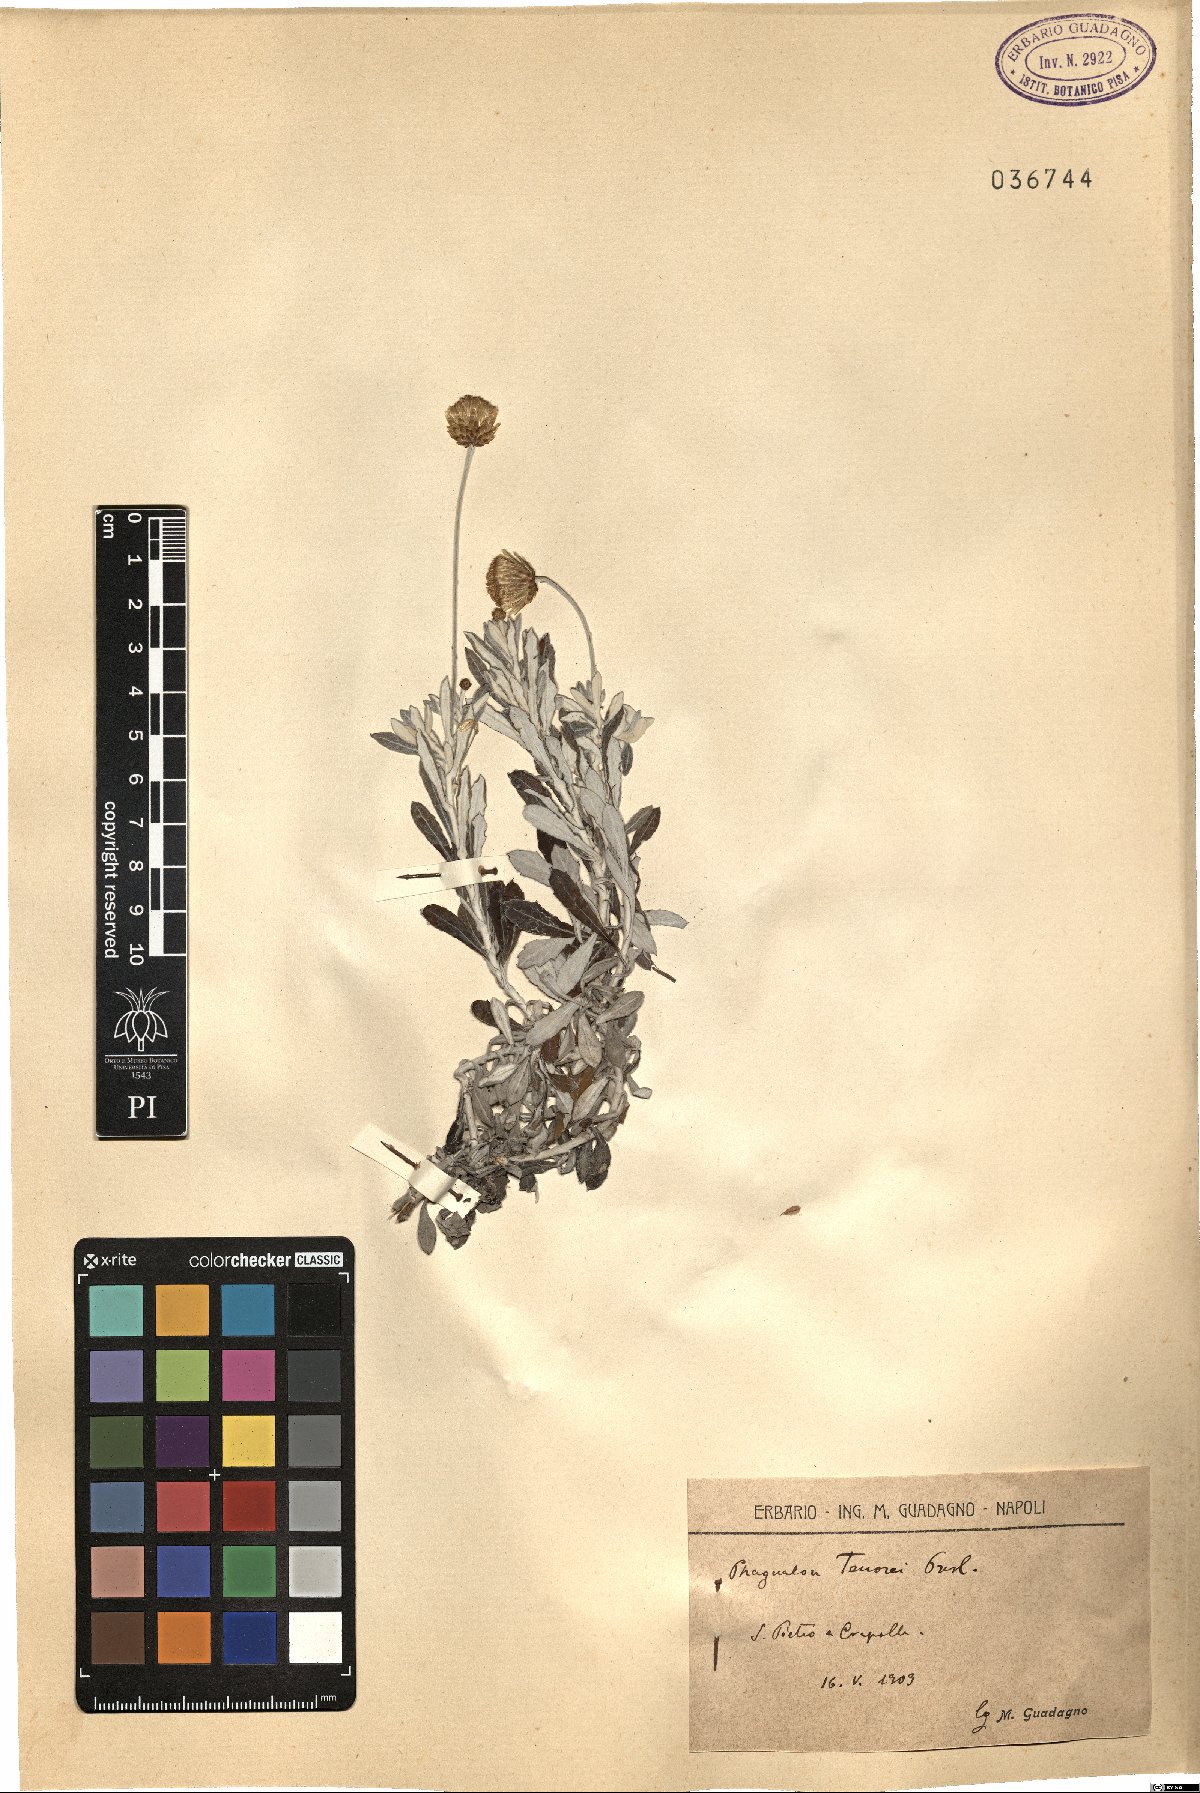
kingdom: Plantae
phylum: Tracheophyta
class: Magnoliopsida
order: Asterales
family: Asteraceae
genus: Phagnalon
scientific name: Phagnalon graecum
